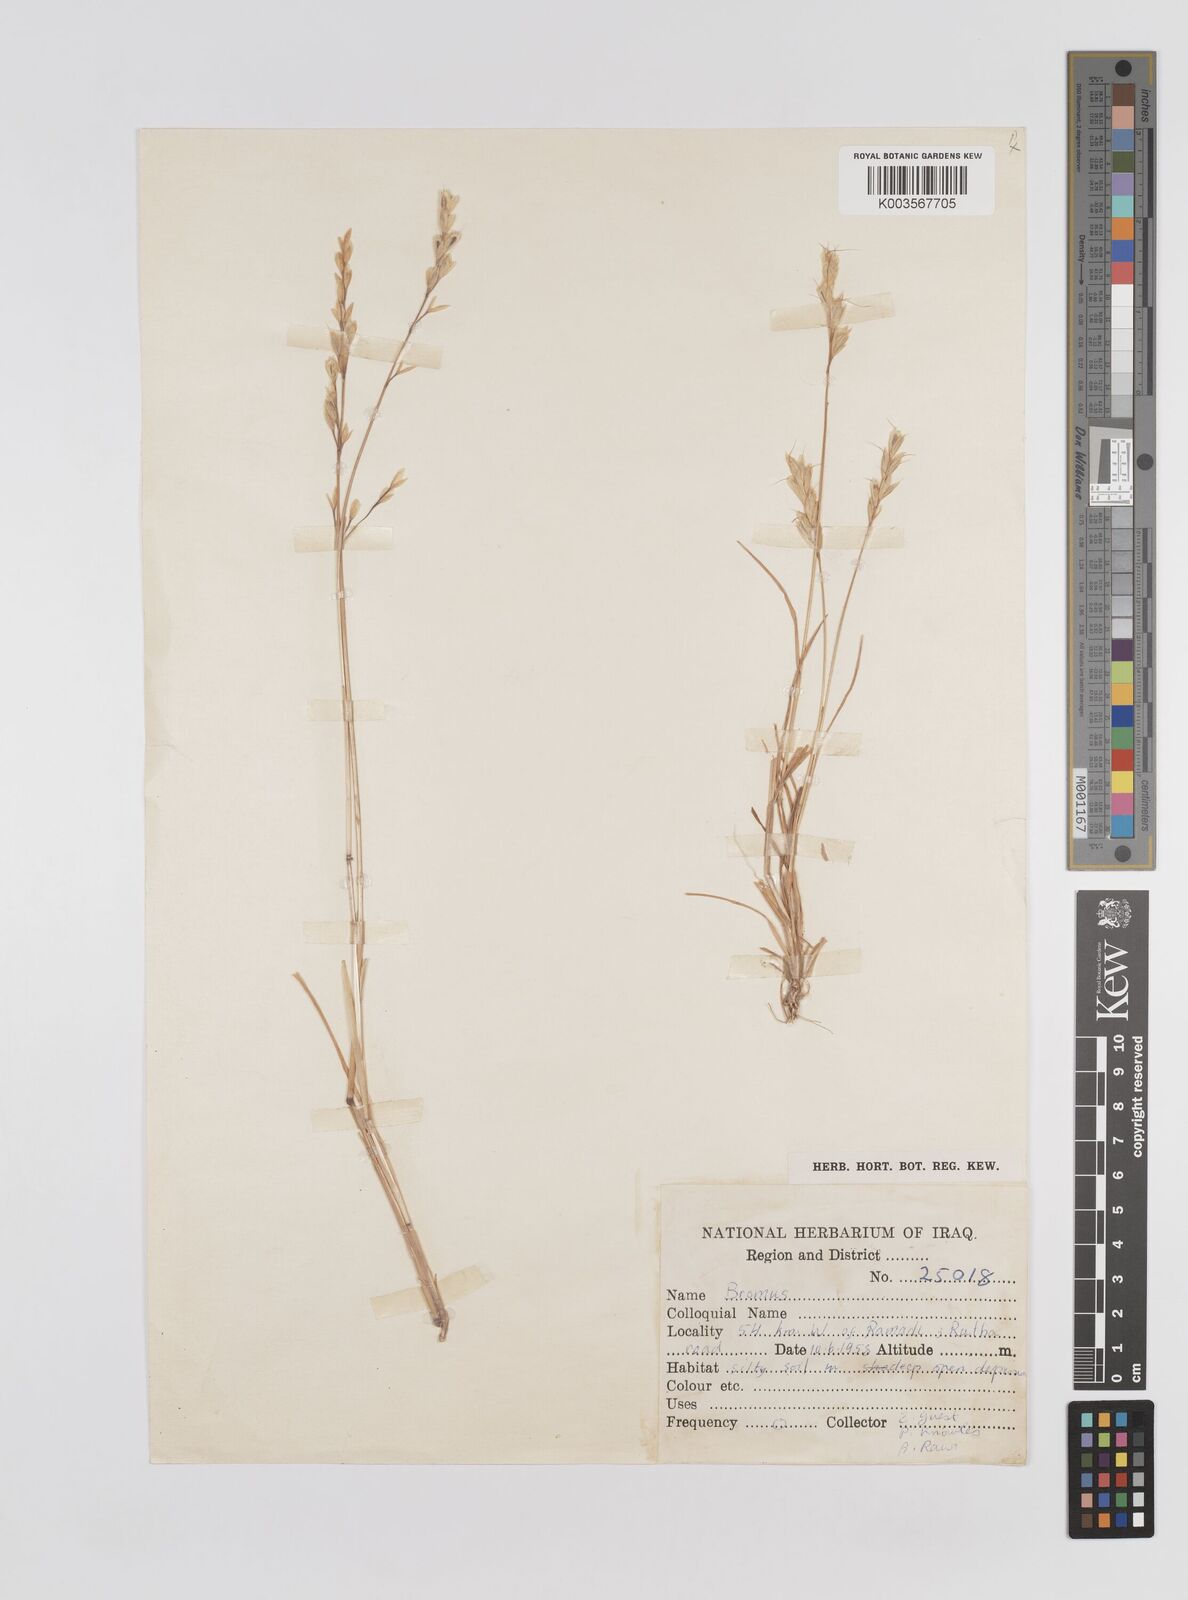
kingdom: Plantae
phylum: Tracheophyta
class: Liliopsida
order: Poales
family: Poaceae
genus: Bromus
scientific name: Bromus
